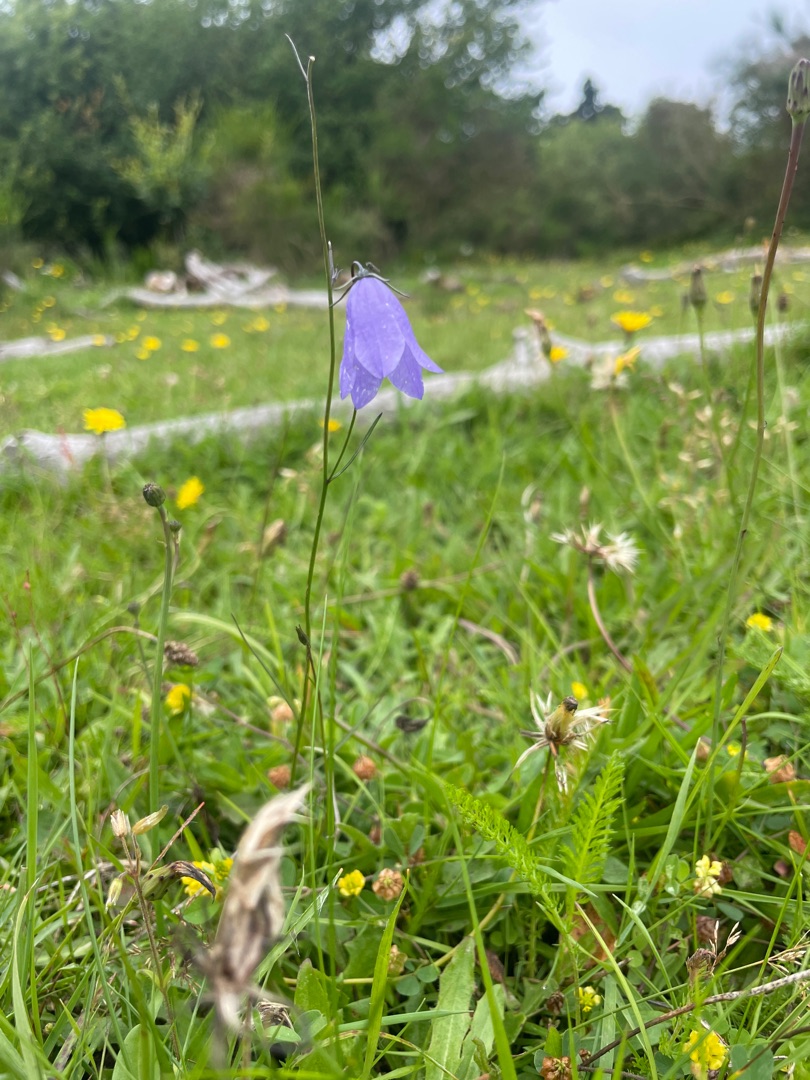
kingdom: Plantae
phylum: Tracheophyta
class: Magnoliopsida
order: Asterales
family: Campanulaceae
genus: Campanula
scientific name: Campanula rotundifolia
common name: Liden klokke
